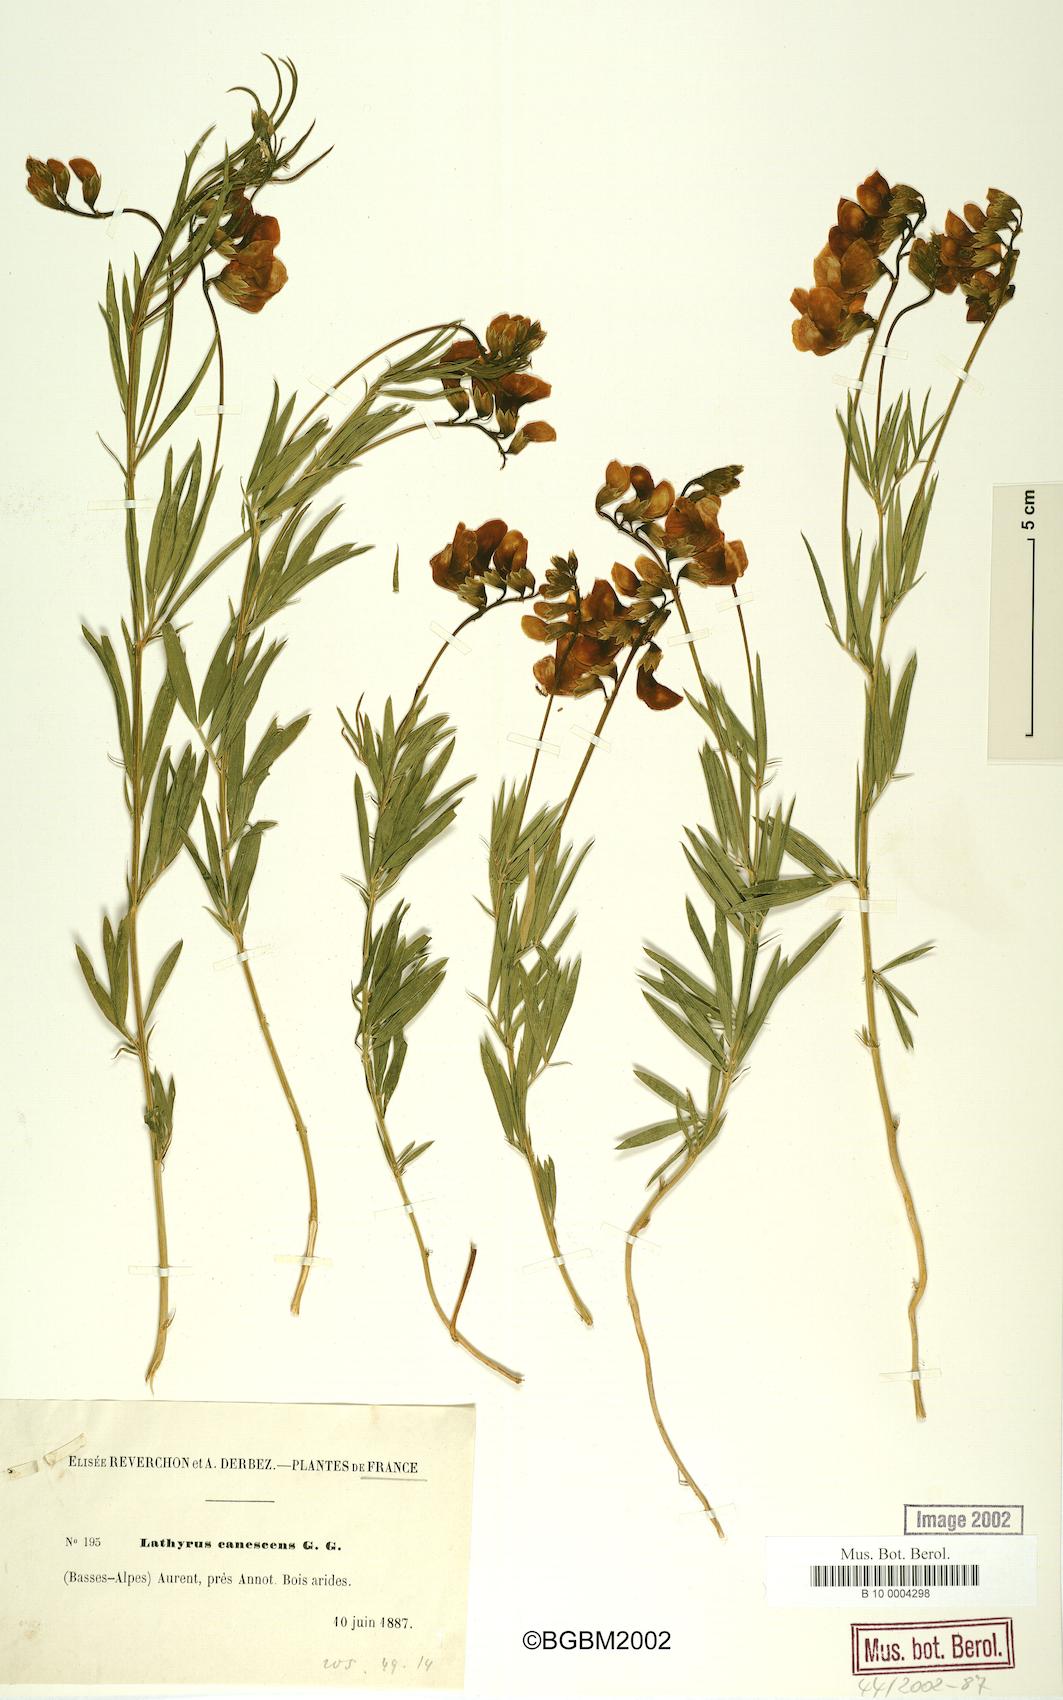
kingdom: Plantae
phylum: Tracheophyta
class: Magnoliopsida
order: Fabales
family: Fabaceae
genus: Lathyrus
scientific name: Lathyrus filiformis
